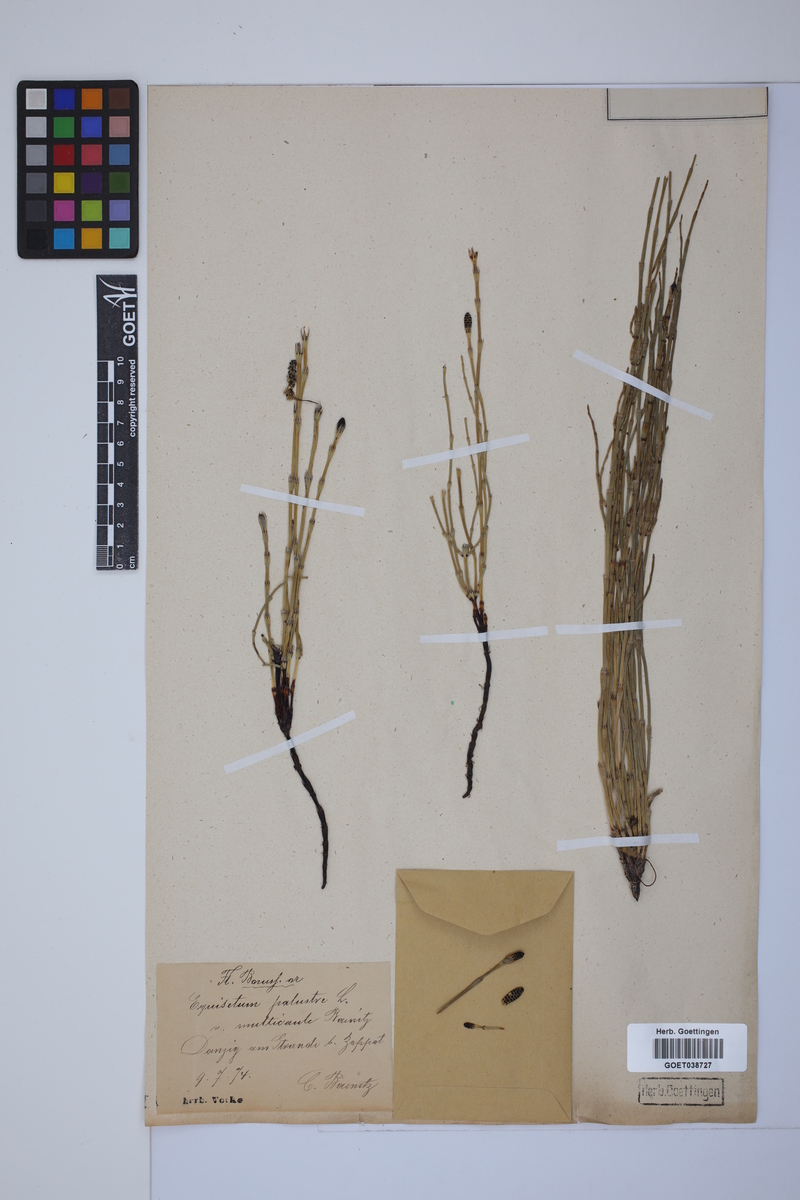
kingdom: Plantae
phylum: Tracheophyta
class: Polypodiopsida
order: Equisetales
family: Equisetaceae
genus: Equisetum
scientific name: Equisetum palustre
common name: Marsh horsetail
